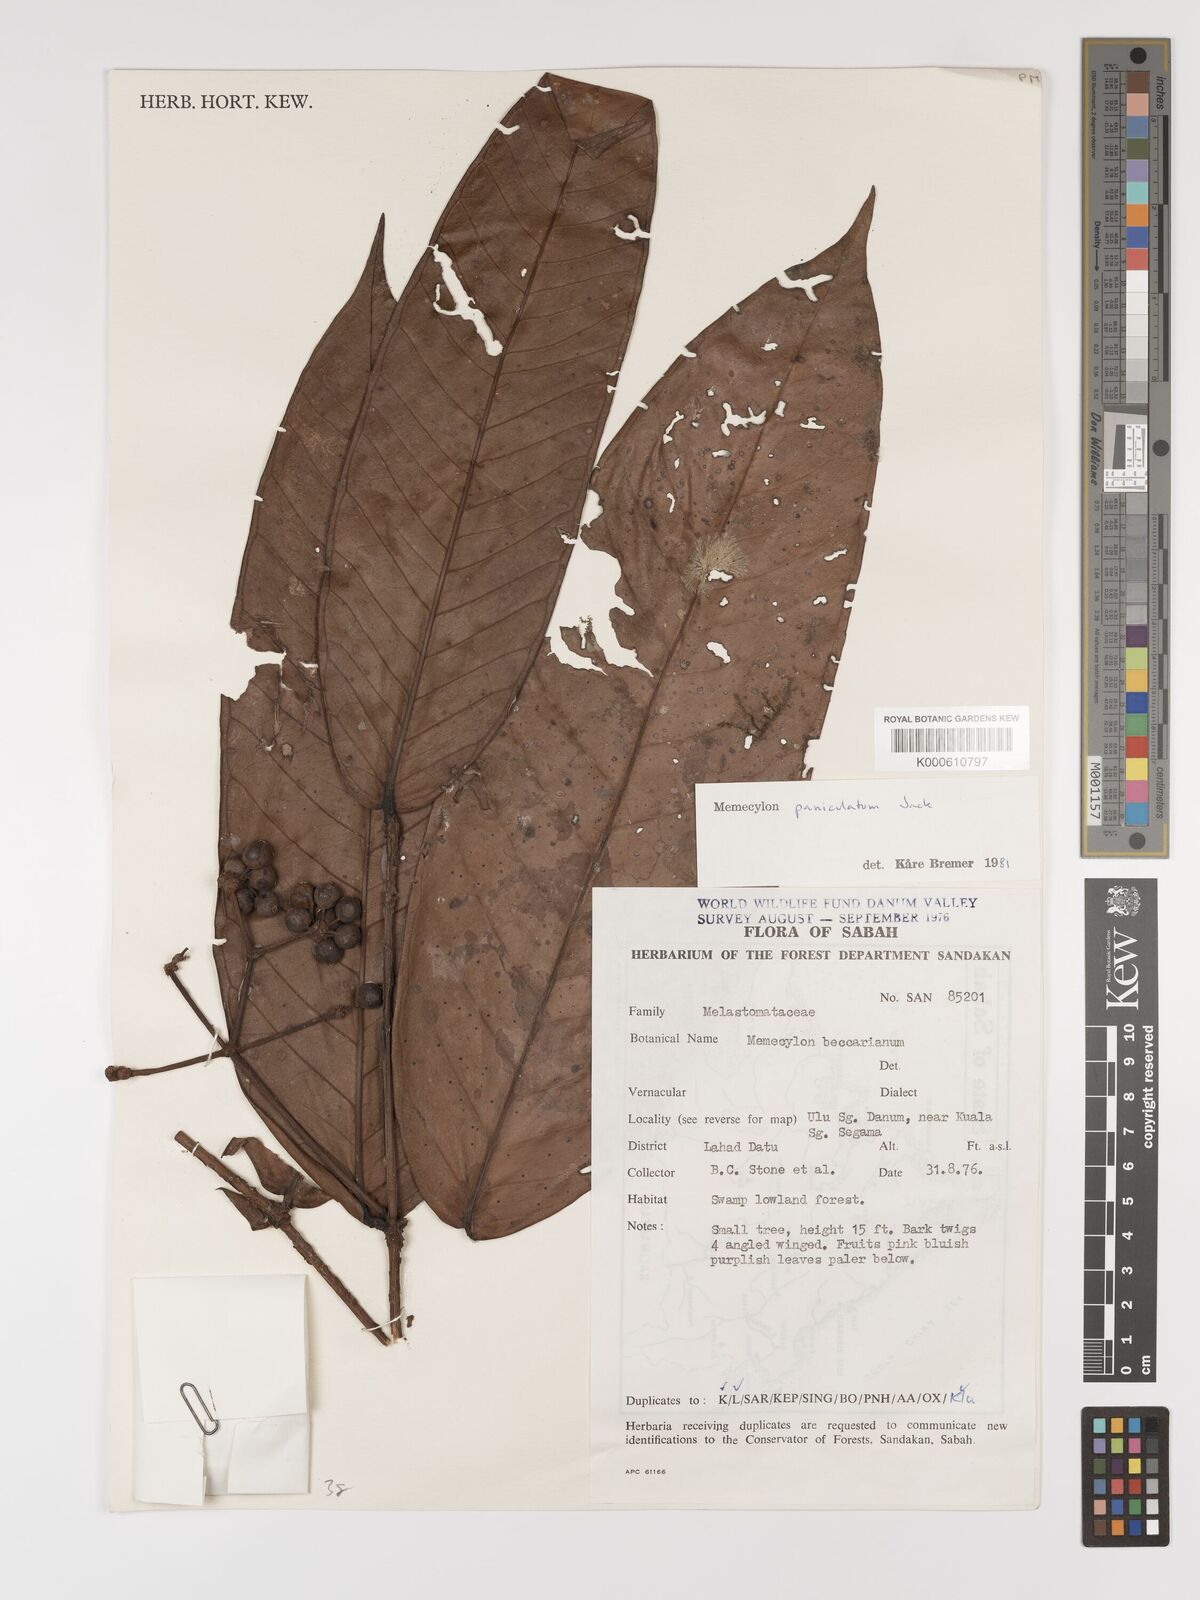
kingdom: Plantae
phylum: Tracheophyta
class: Magnoliopsida
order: Myrtales
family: Melastomataceae
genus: Memecylon
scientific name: Memecylon paniculatum
